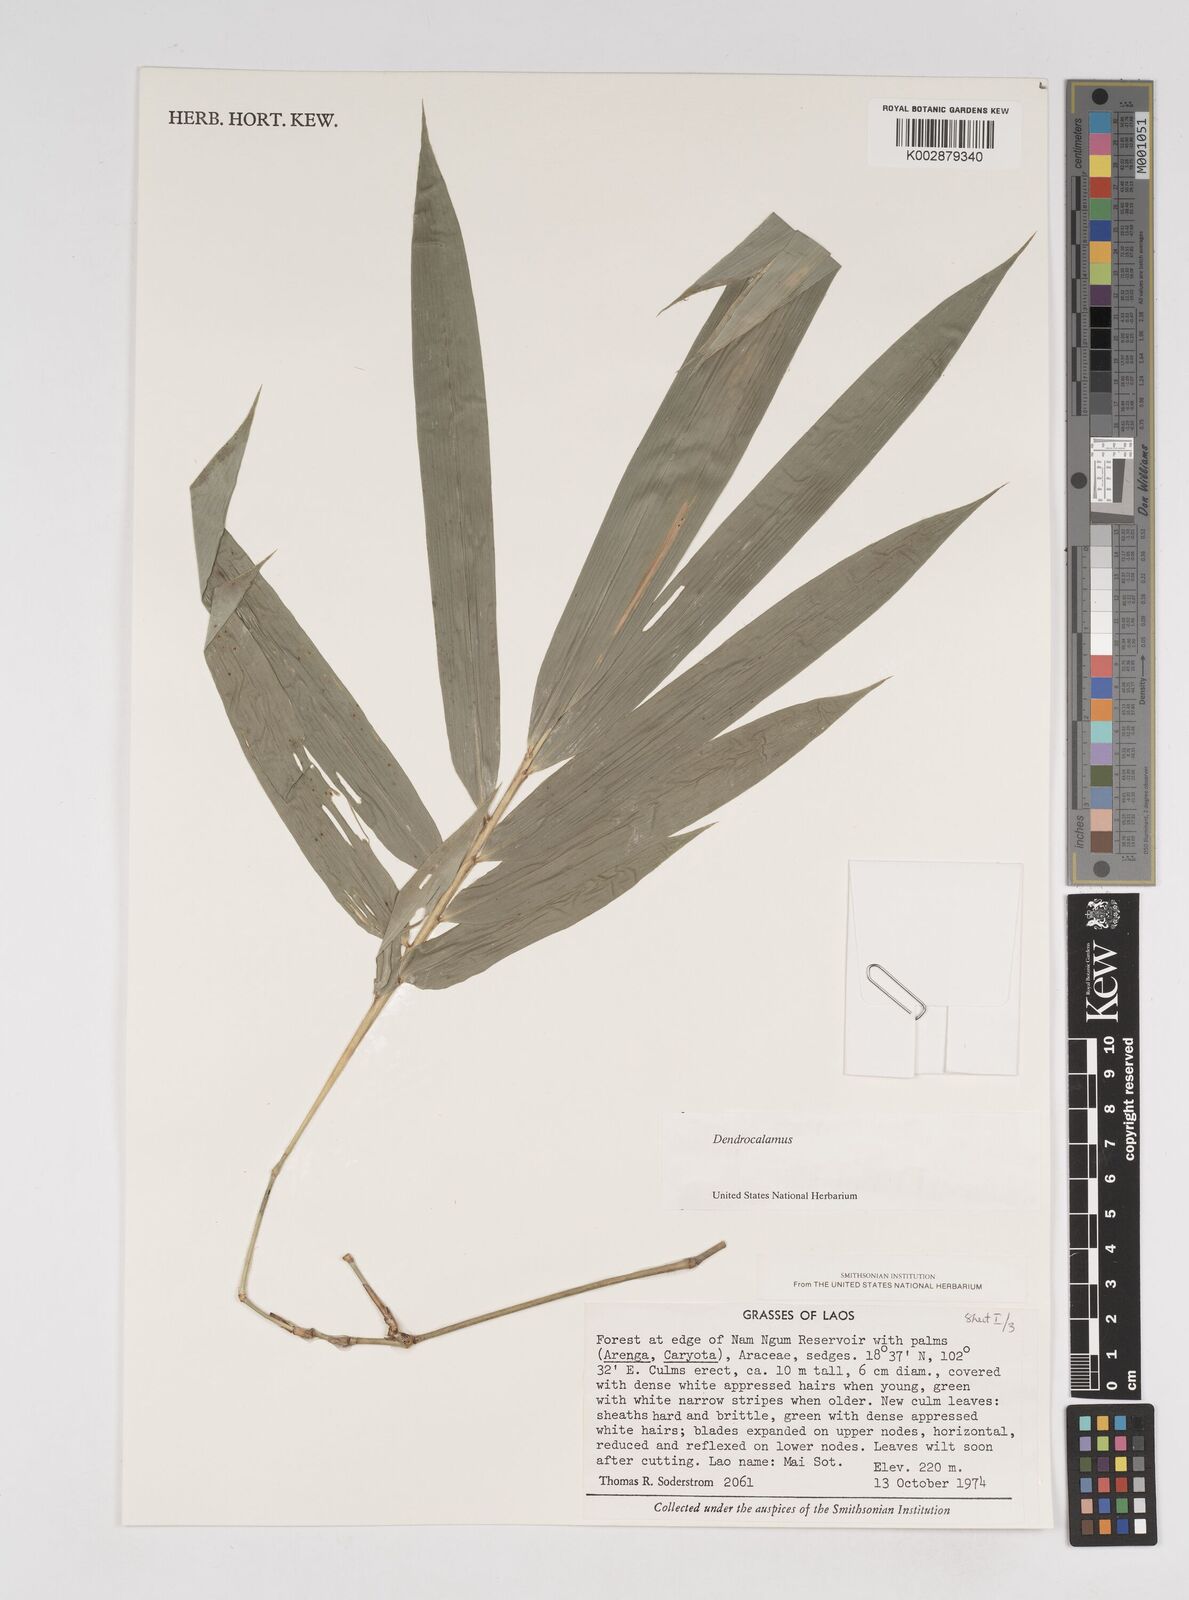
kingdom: Plantae
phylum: Tracheophyta
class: Liliopsida
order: Poales
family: Poaceae
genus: Dendrocalamus
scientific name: Dendrocalamus
